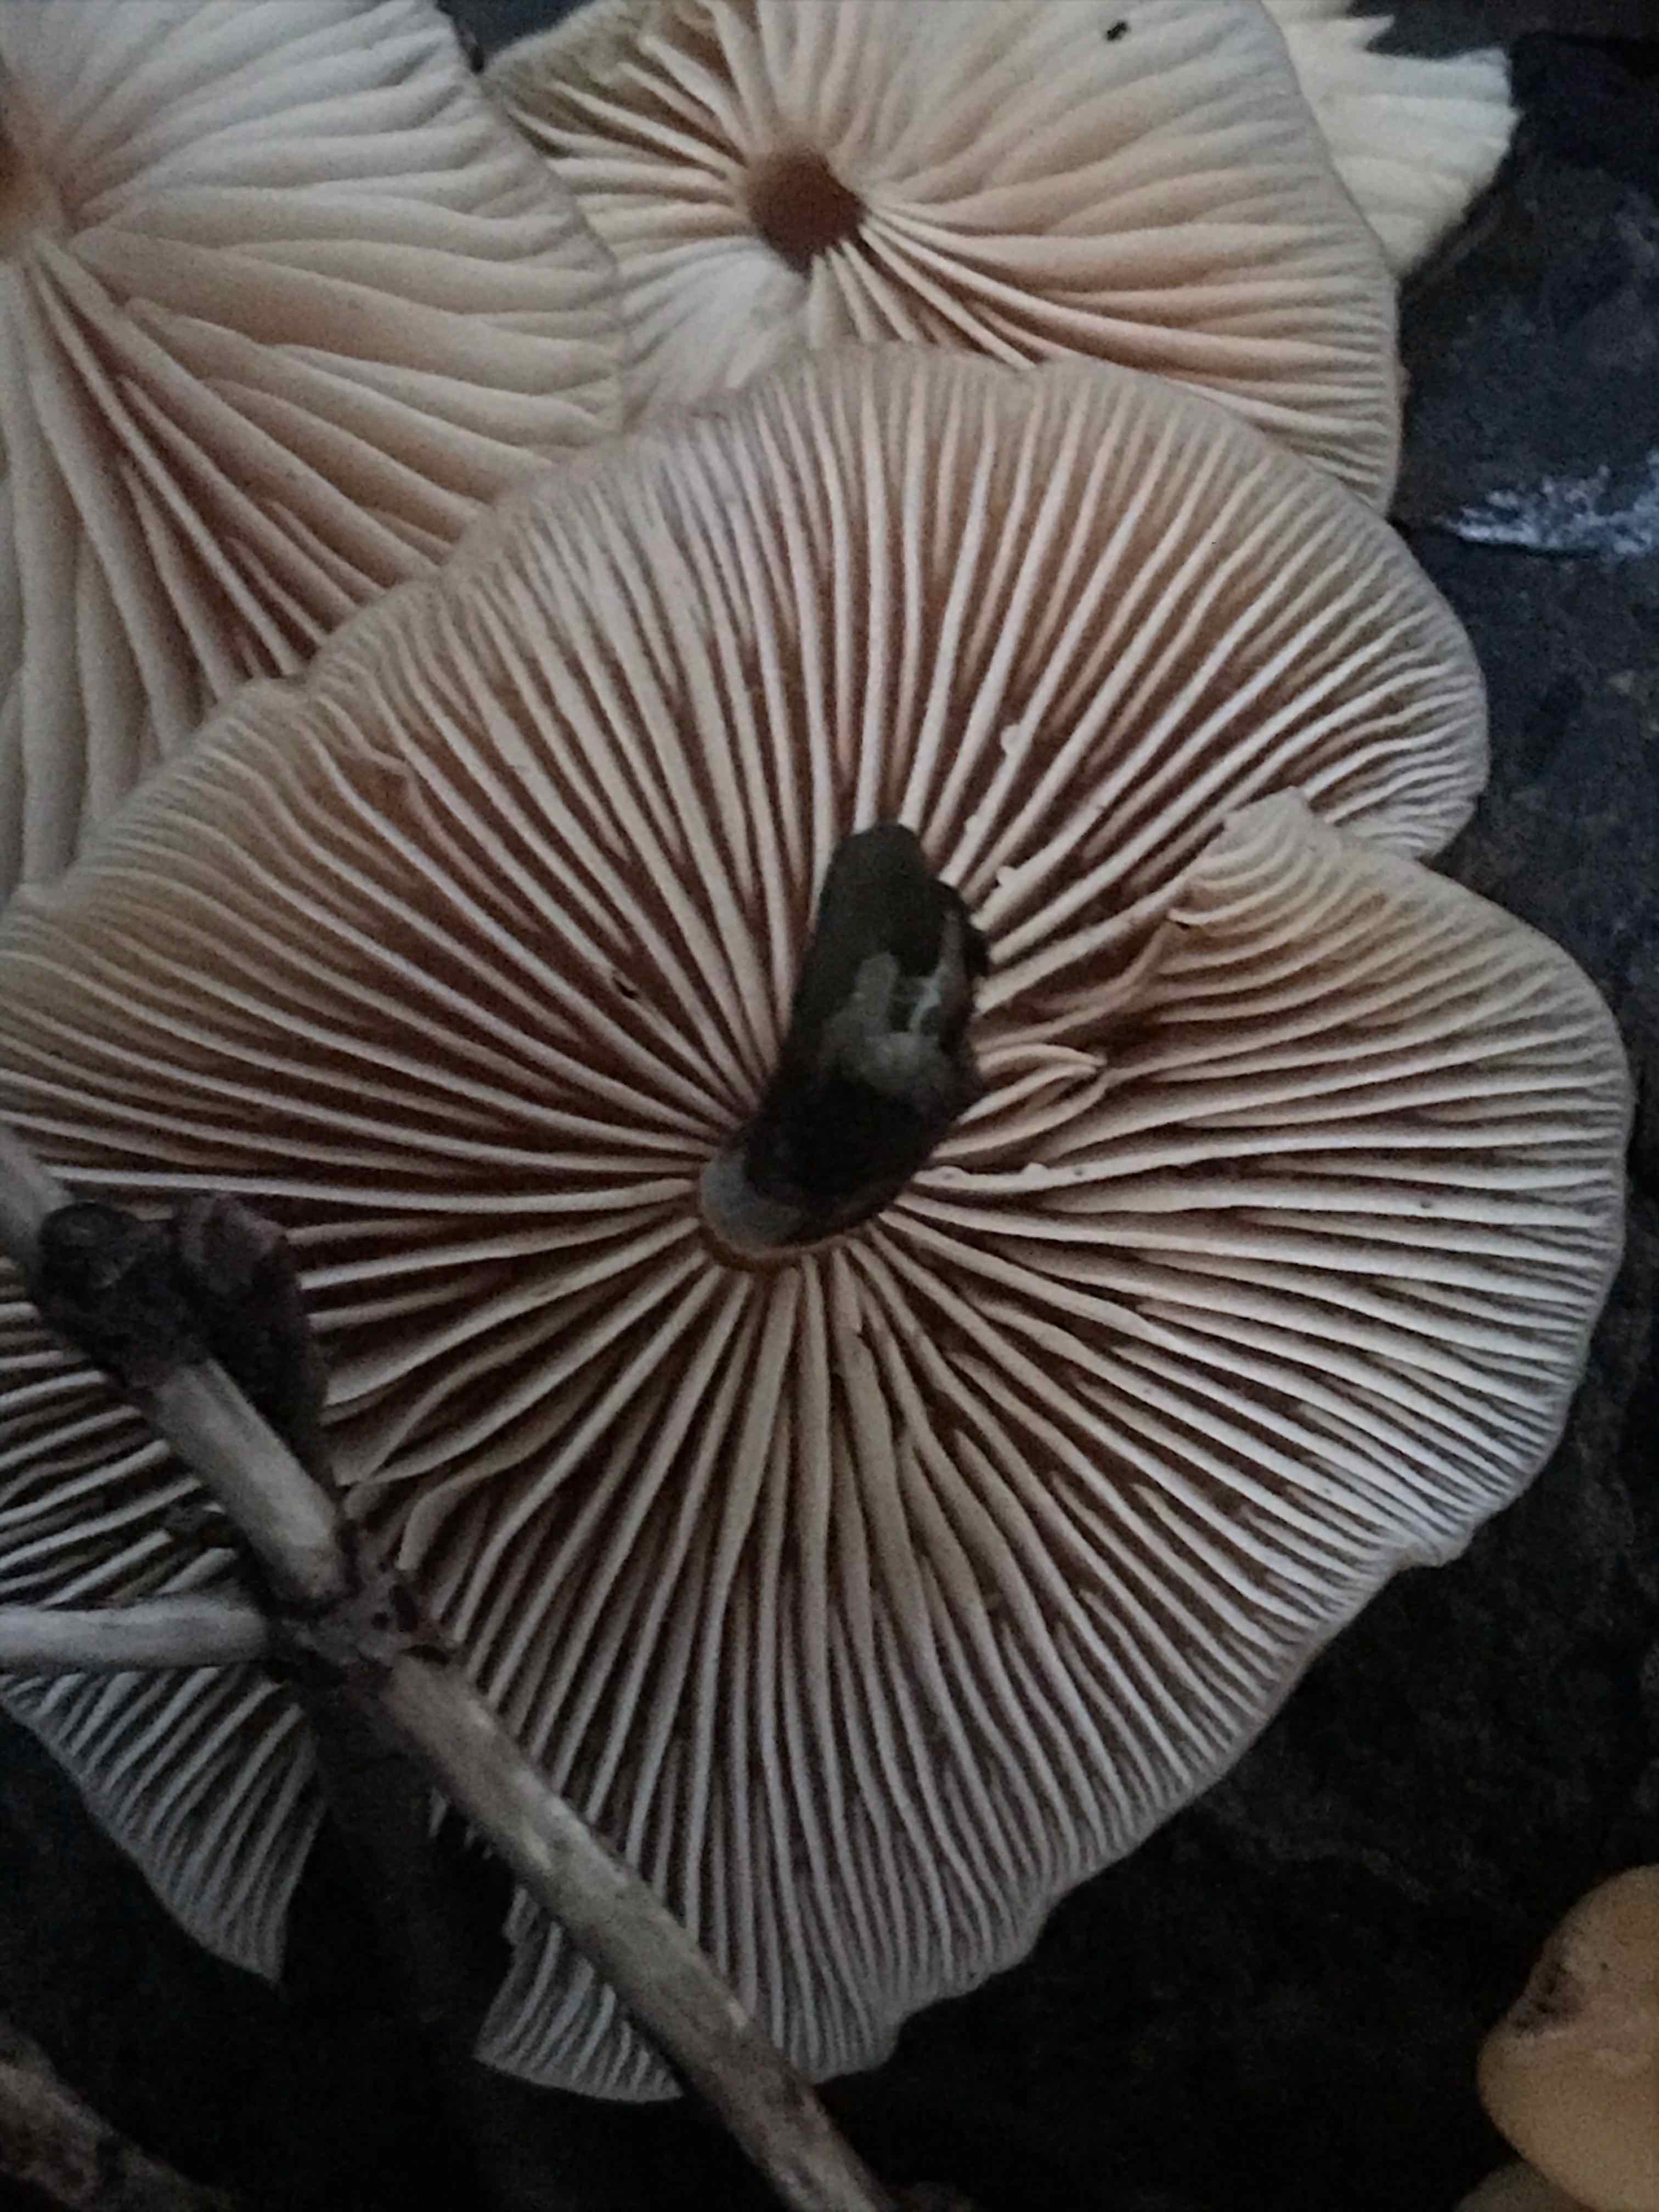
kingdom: Fungi
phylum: Basidiomycota
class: Agaricomycetes
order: Agaricales
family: Physalacriaceae
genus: Flammulina
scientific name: Flammulina
